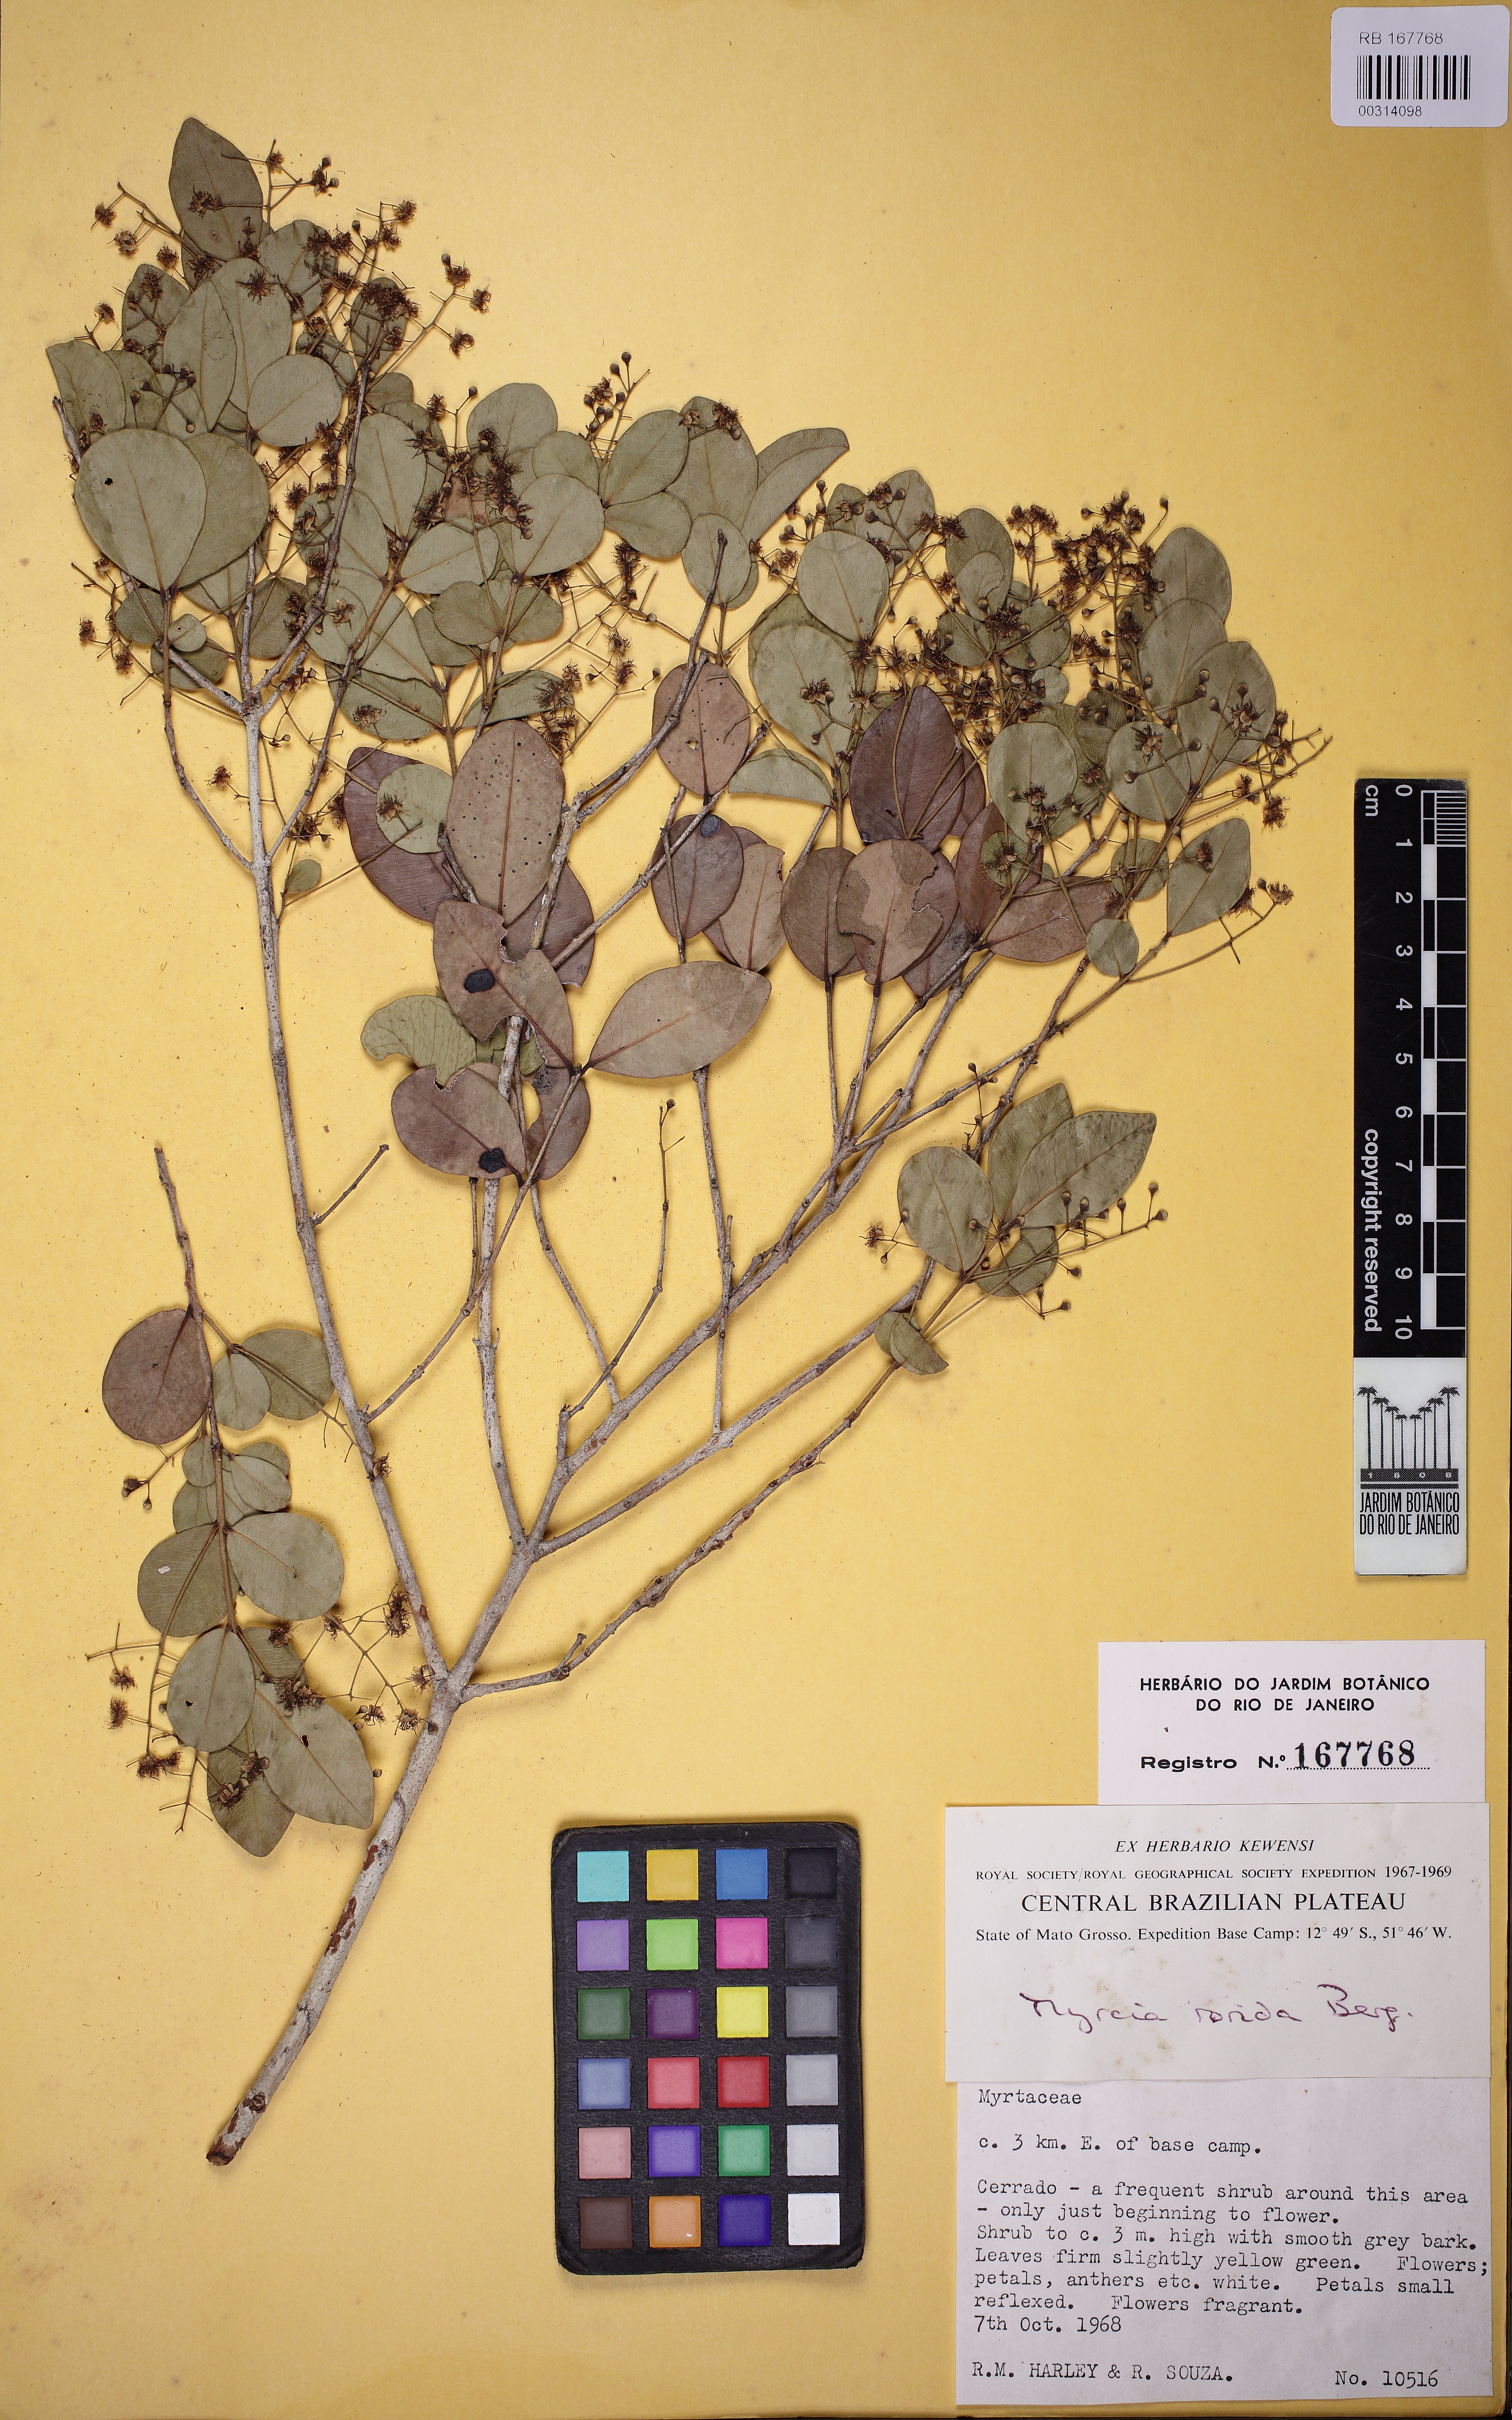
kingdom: Plantae
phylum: Tracheophyta
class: Magnoliopsida
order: Myrtales
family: Myrtaceae
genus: Myrcia
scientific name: Myrcia guianensis
